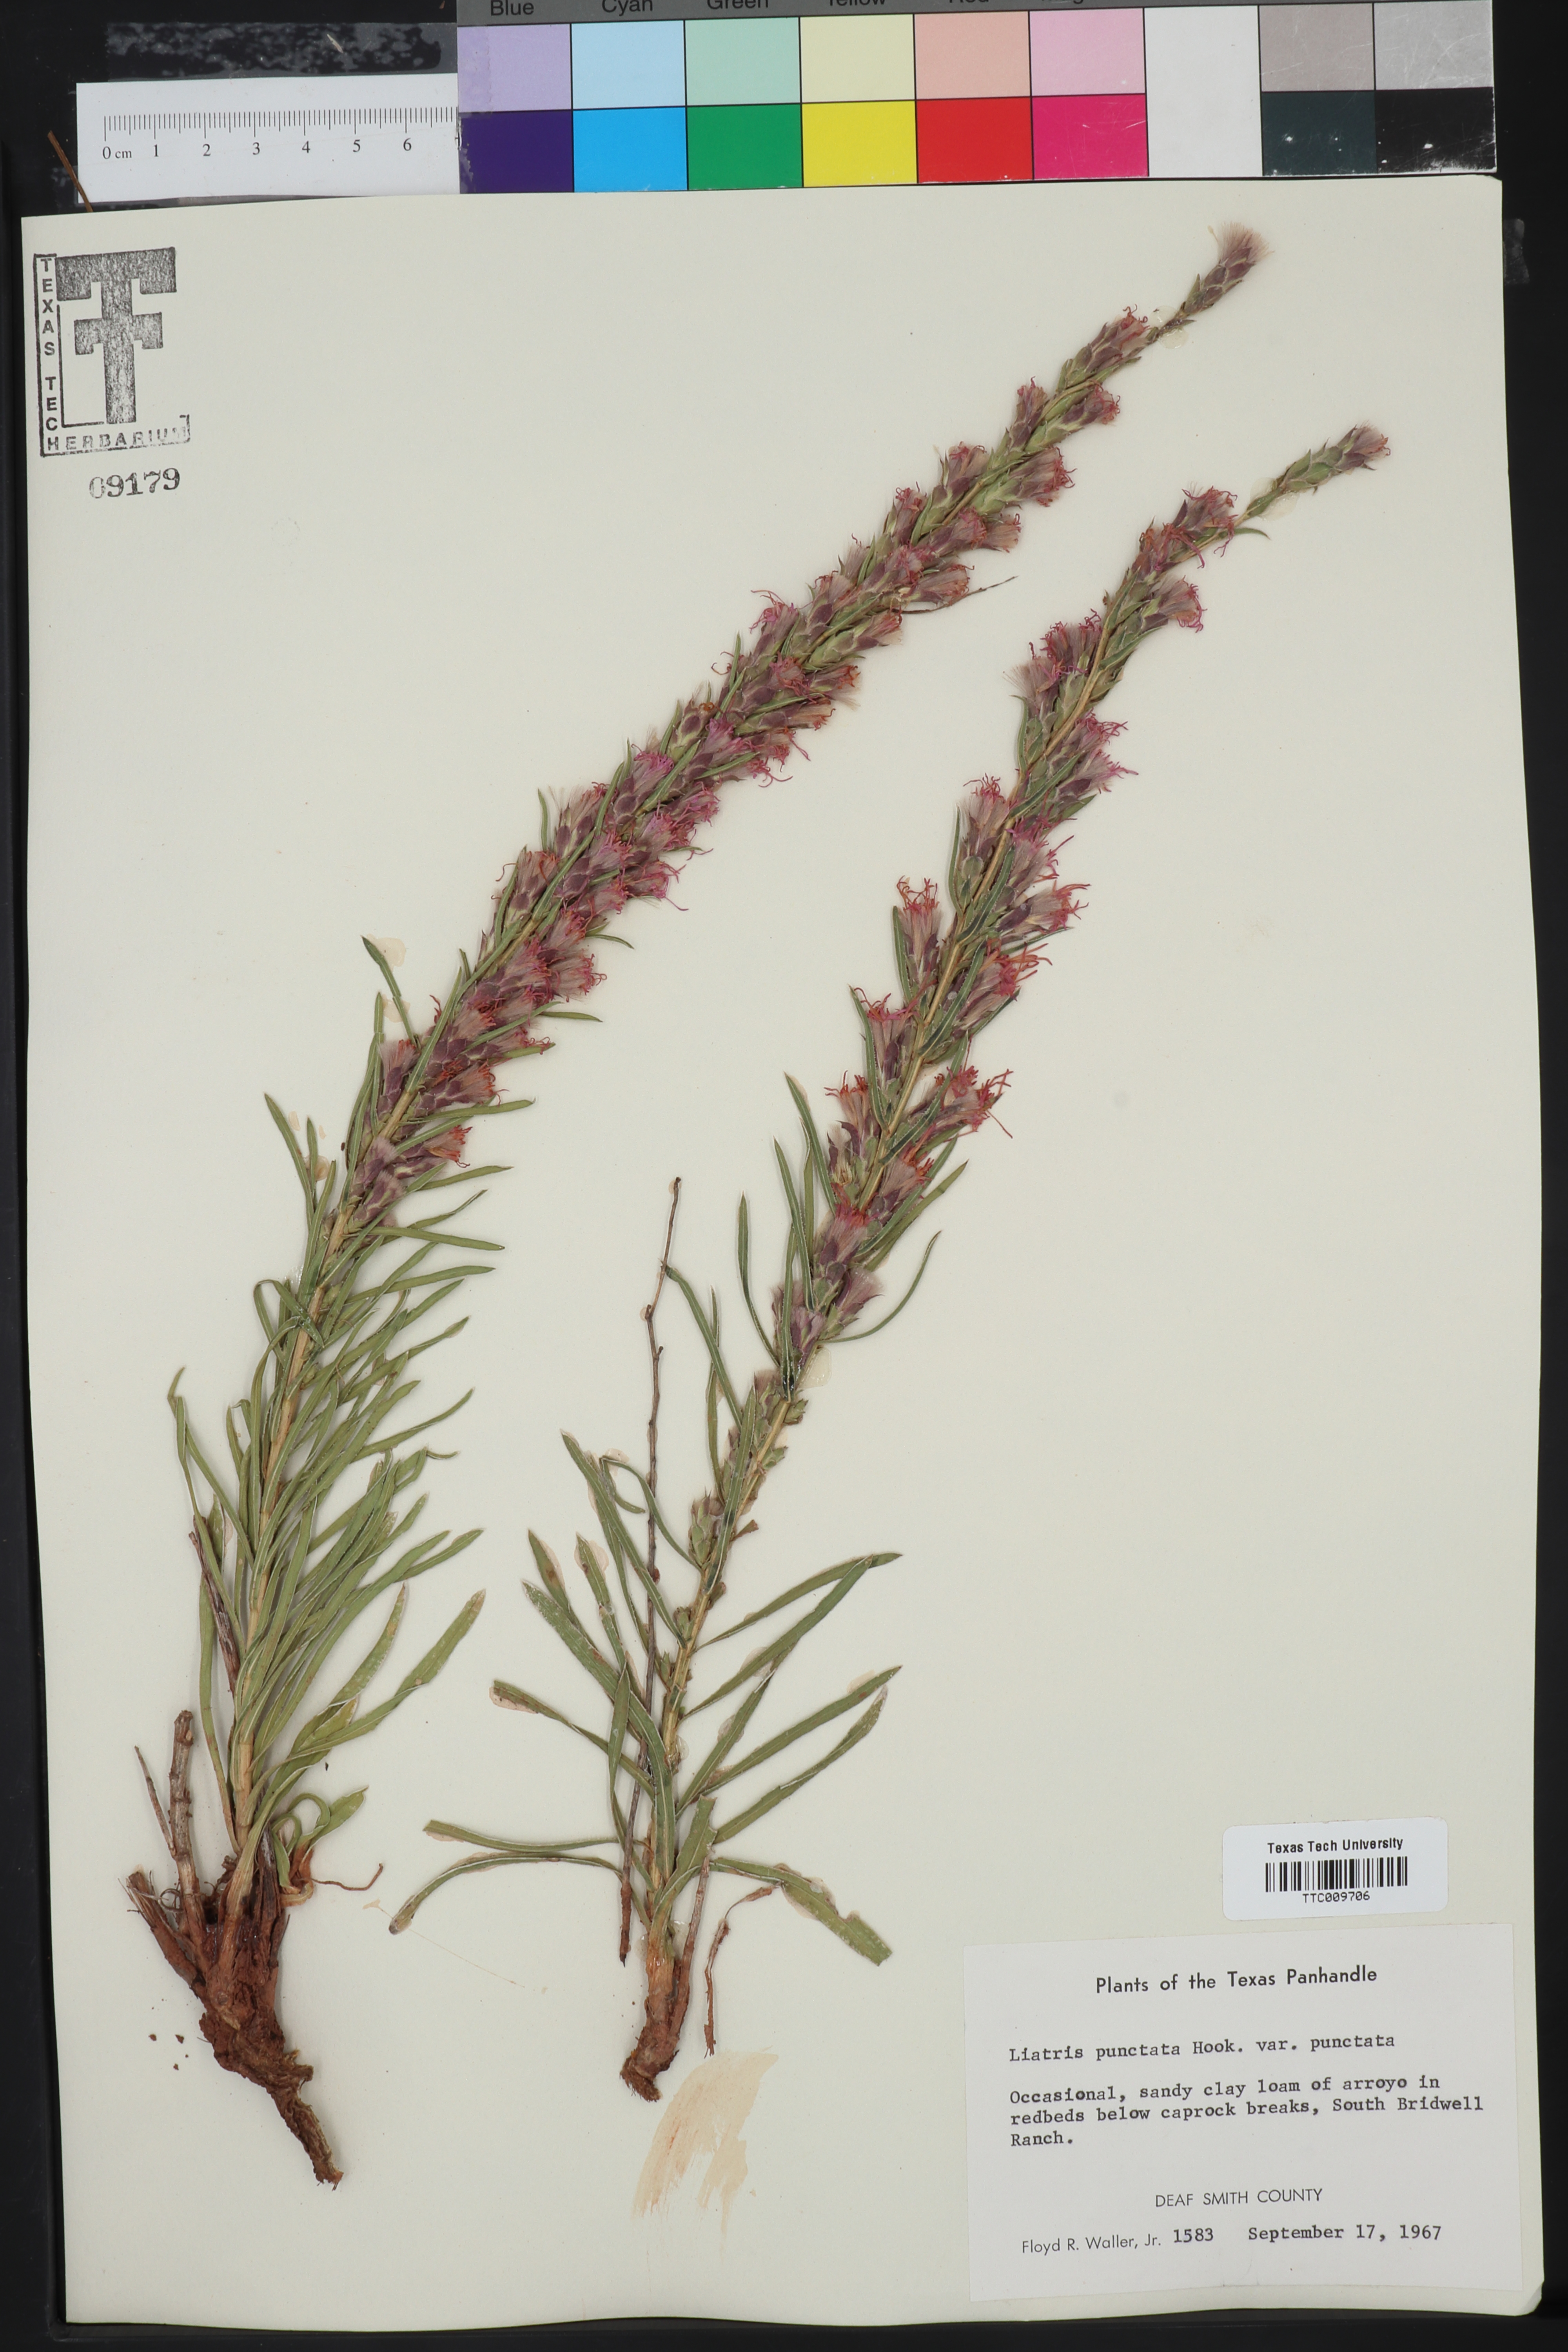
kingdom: Plantae
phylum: Tracheophyta
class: Magnoliopsida
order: Asterales
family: Asteraceae
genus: Liatris
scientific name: Liatris punctata
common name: Dotted gayfeather
